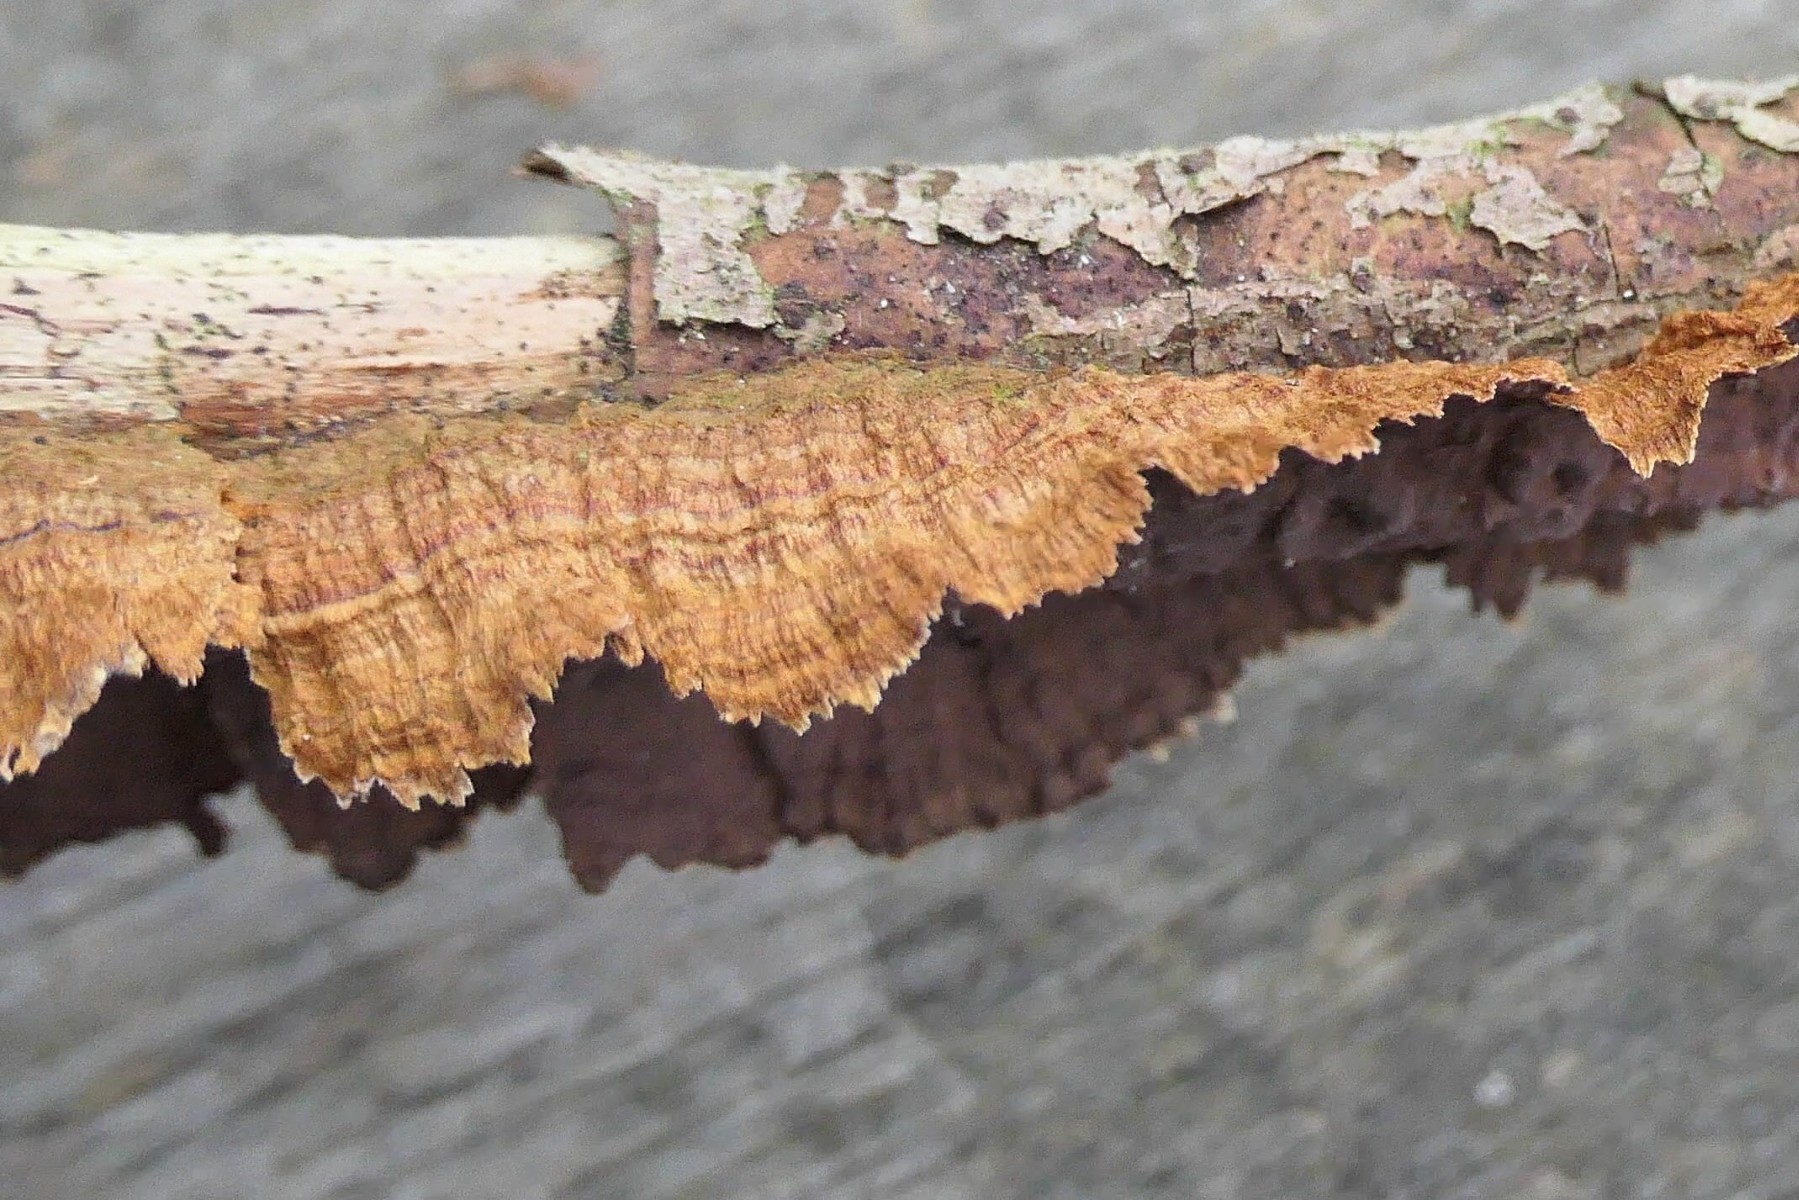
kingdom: Fungi
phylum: Basidiomycota
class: Agaricomycetes
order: Hymenochaetales
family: Hymenochaetaceae
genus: Hydnoporia
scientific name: Hydnoporia tabacina
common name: tobaksbrun ruslædersvamp
